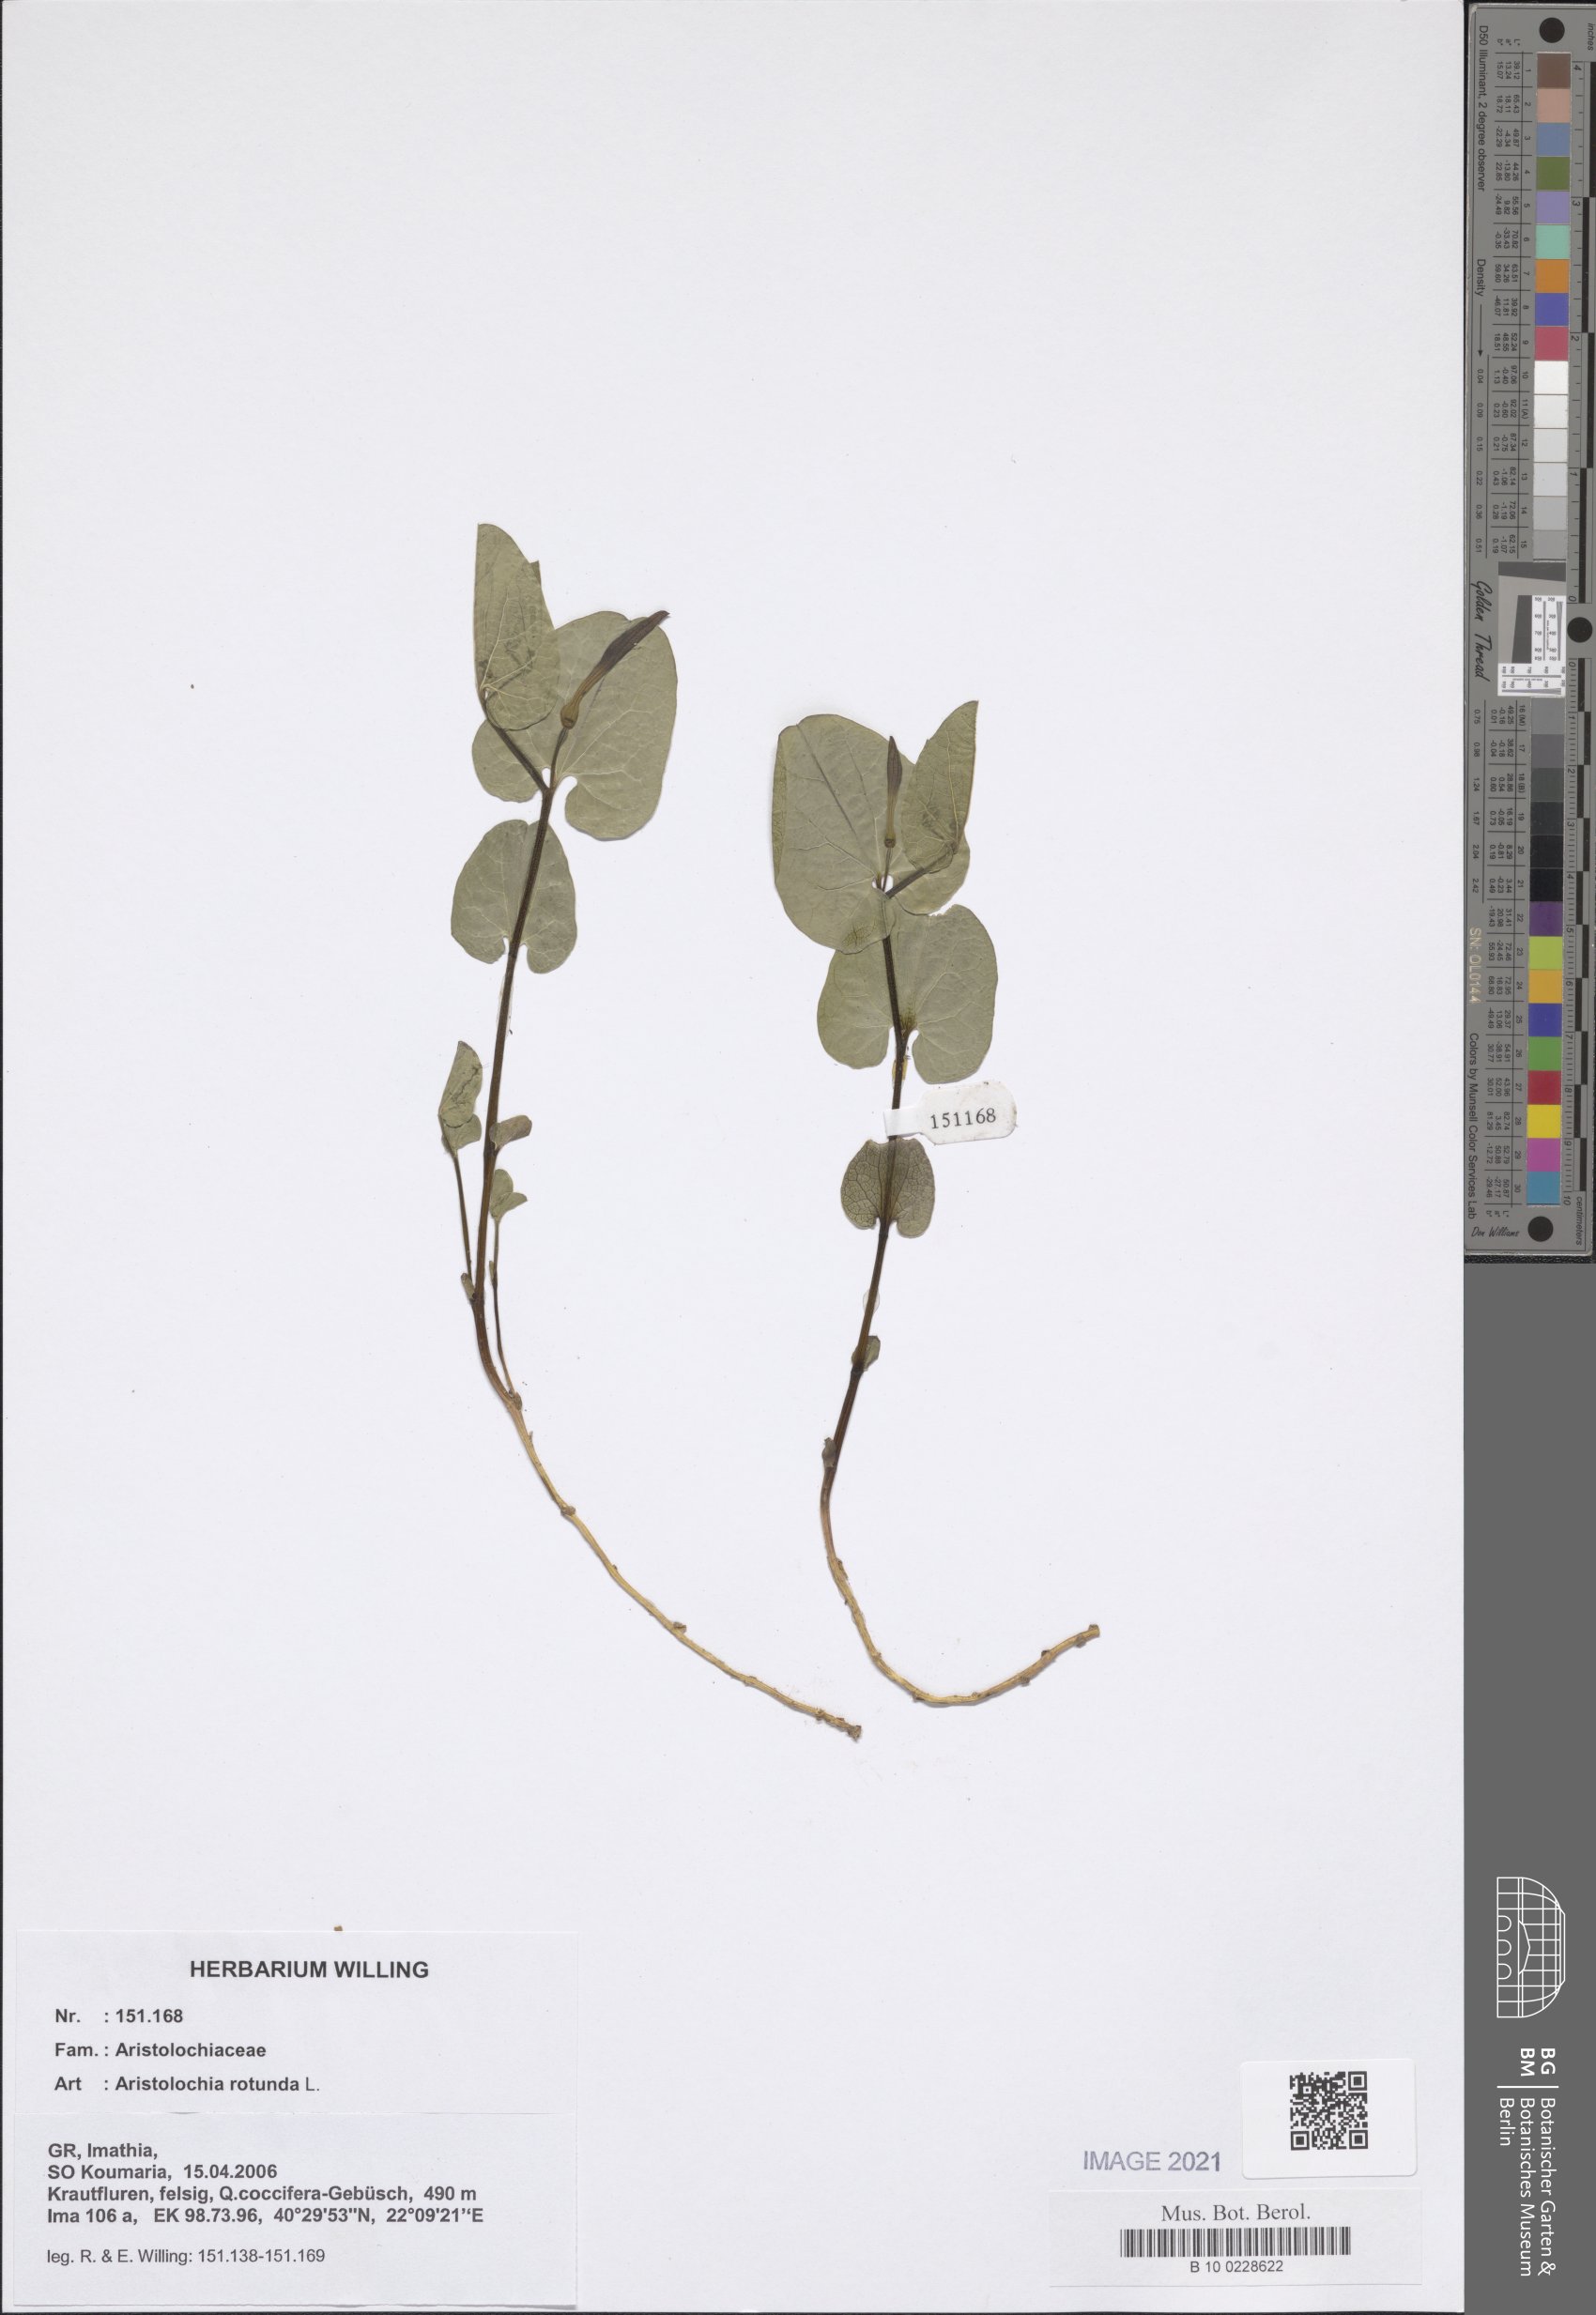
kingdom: Plantae
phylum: Tracheophyta
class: Magnoliopsida
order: Piperales
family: Aristolochiaceae
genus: Aristolochia
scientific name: Aristolochia rotunda
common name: Smearwort
